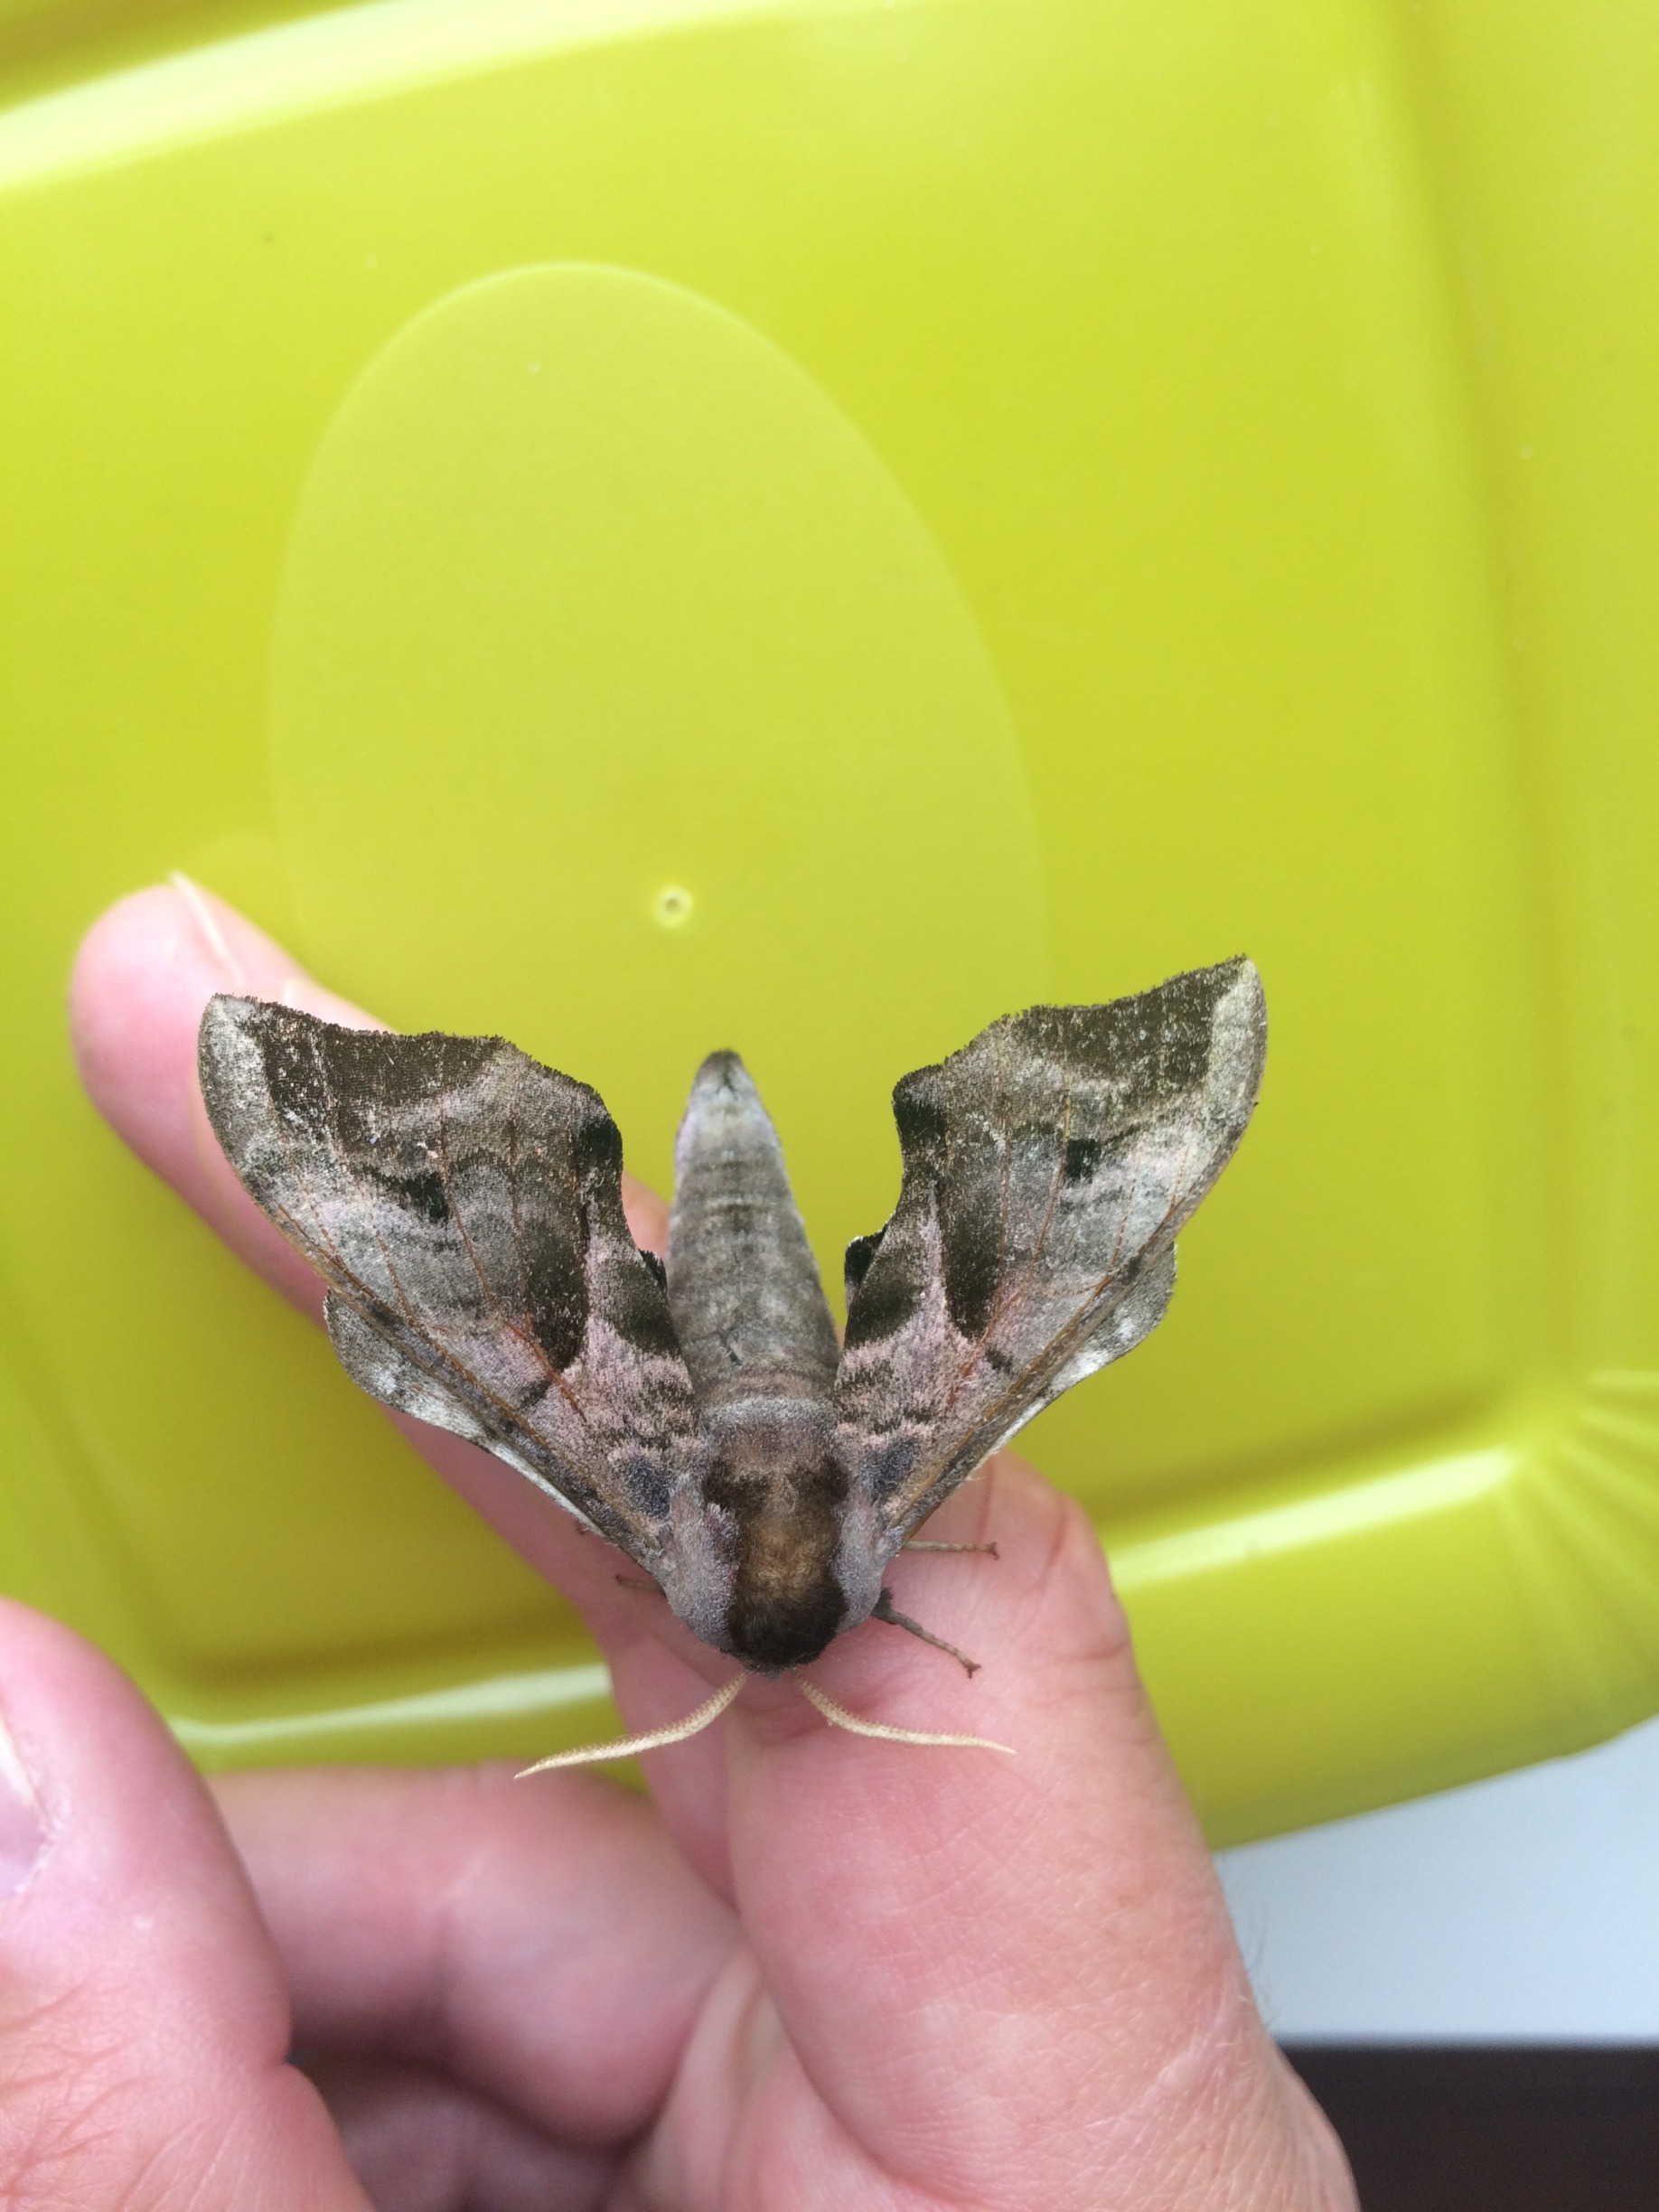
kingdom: Animalia
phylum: Arthropoda
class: Insecta
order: Lepidoptera
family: Sphingidae
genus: Smerinthus
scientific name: Smerinthus ocellata
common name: Aftenpåfugleøje
